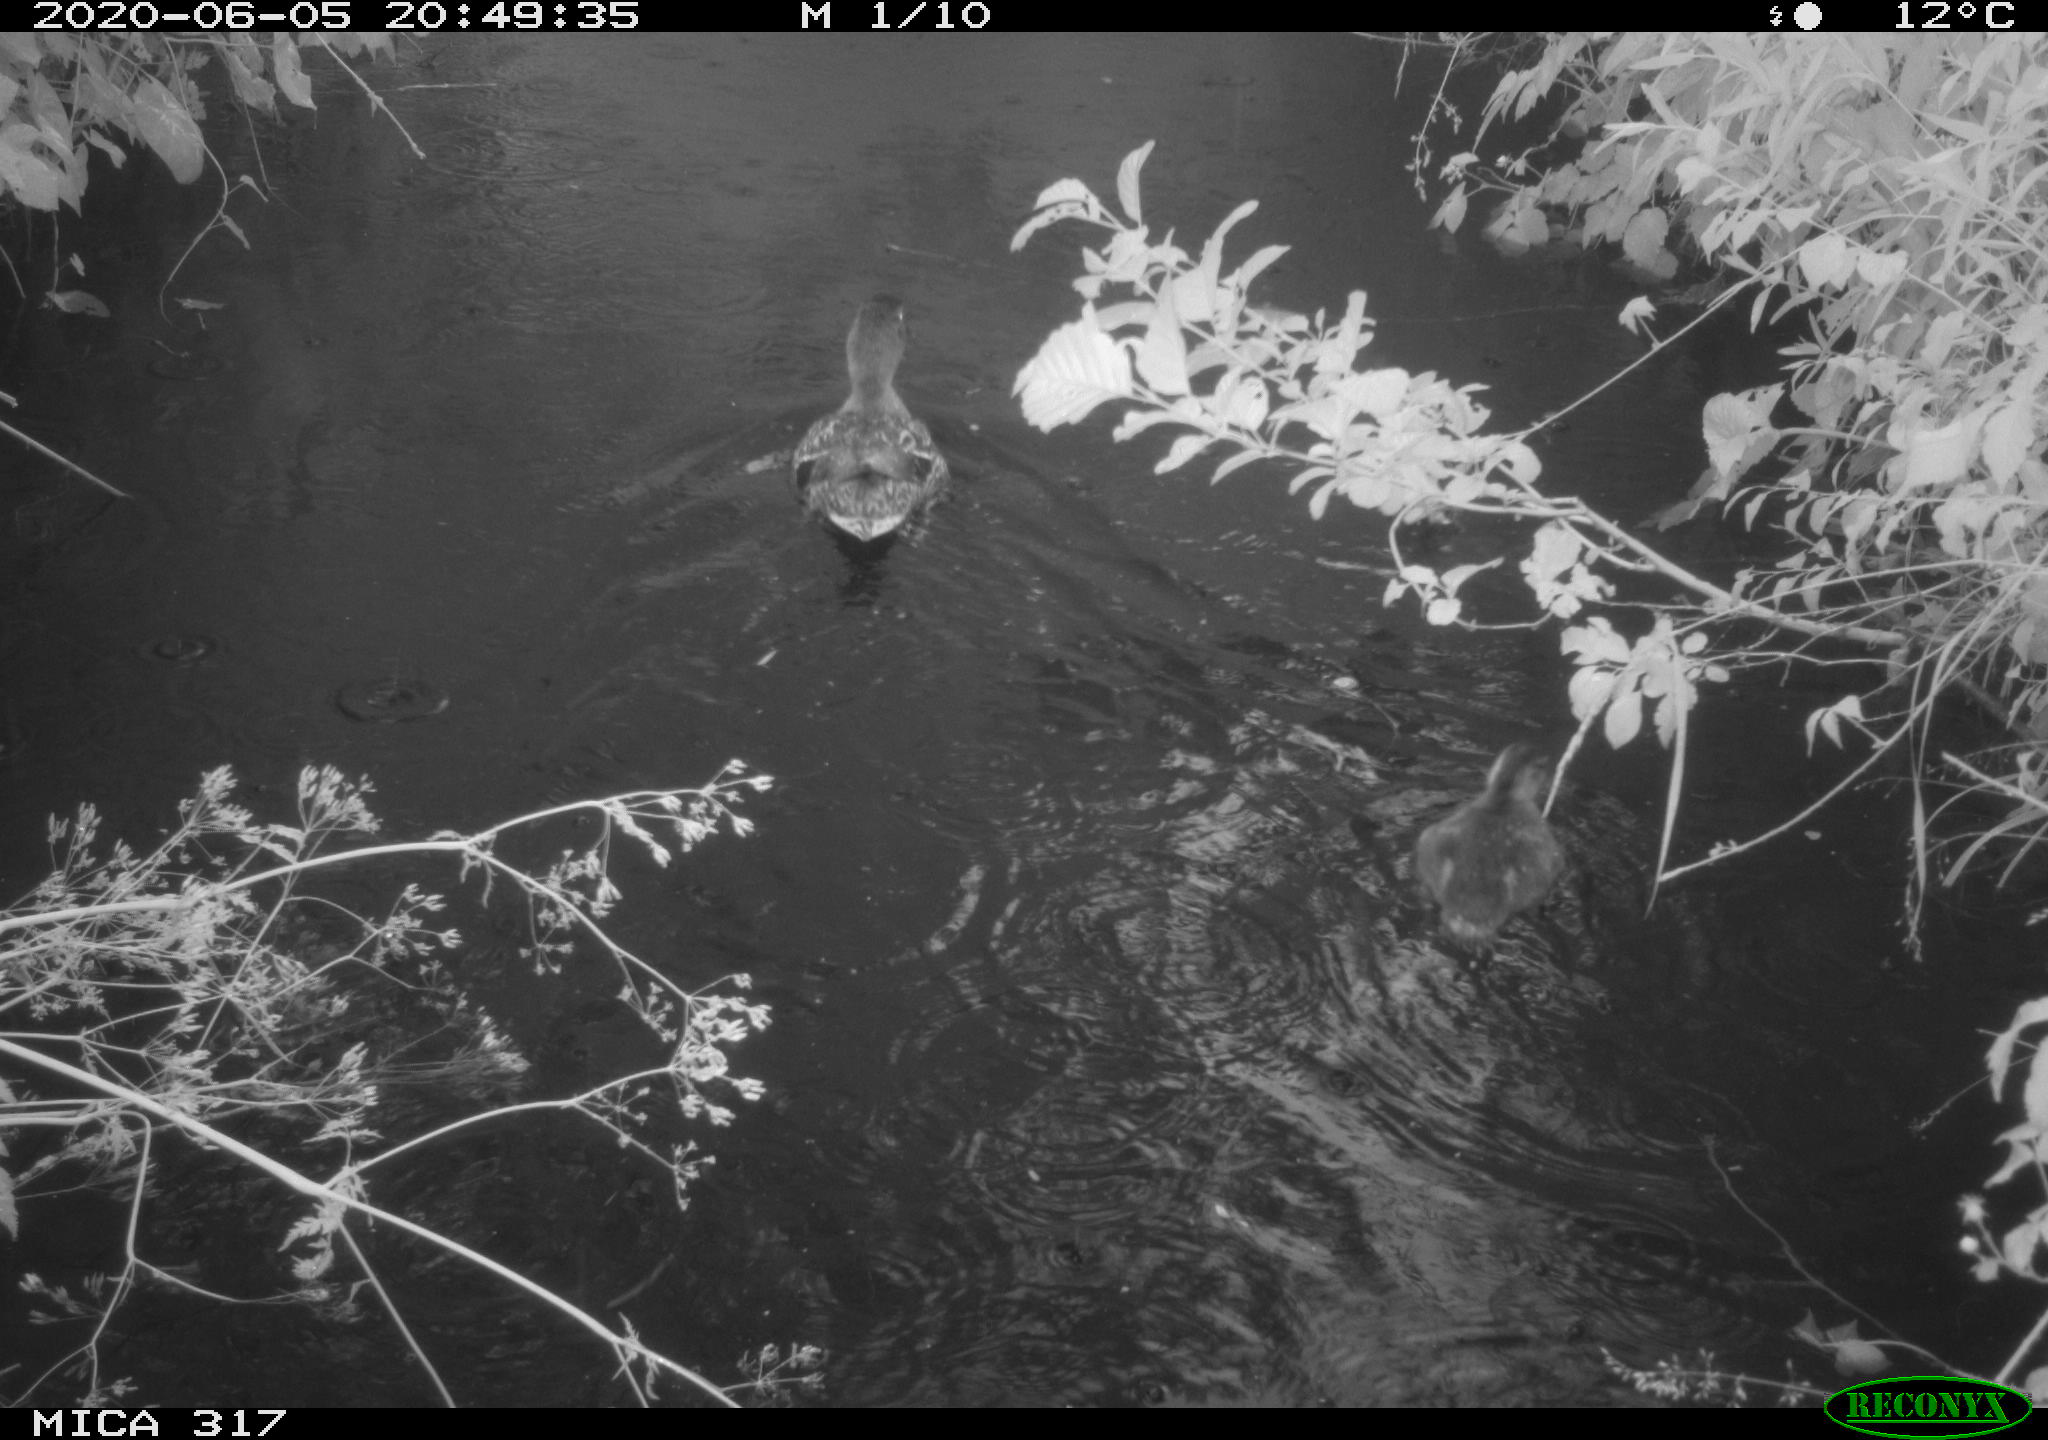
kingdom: Animalia
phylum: Chordata
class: Aves
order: Anseriformes
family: Anatidae
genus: Anas
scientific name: Anas platyrhynchos
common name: Mallard
